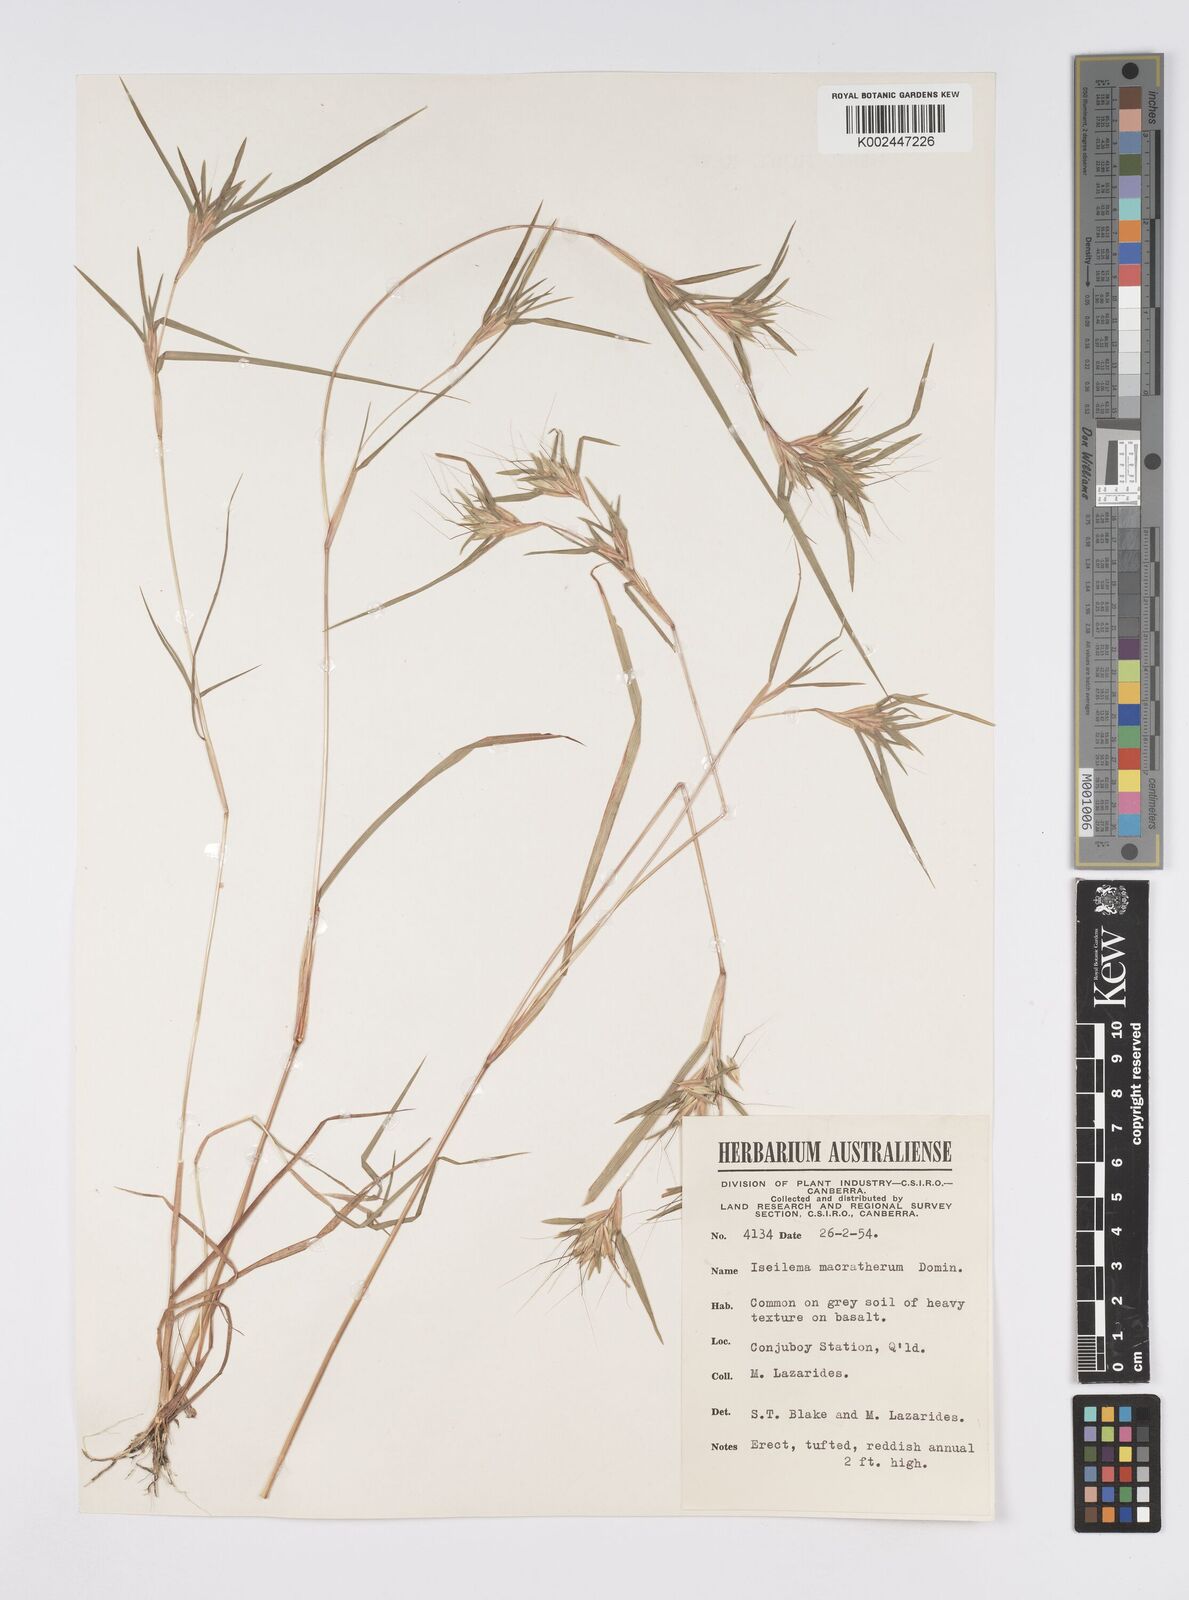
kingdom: Plantae
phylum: Tracheophyta
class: Liliopsida
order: Poales
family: Poaceae
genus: Iseilema
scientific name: Iseilema macratherum
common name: Bull flinders grass
